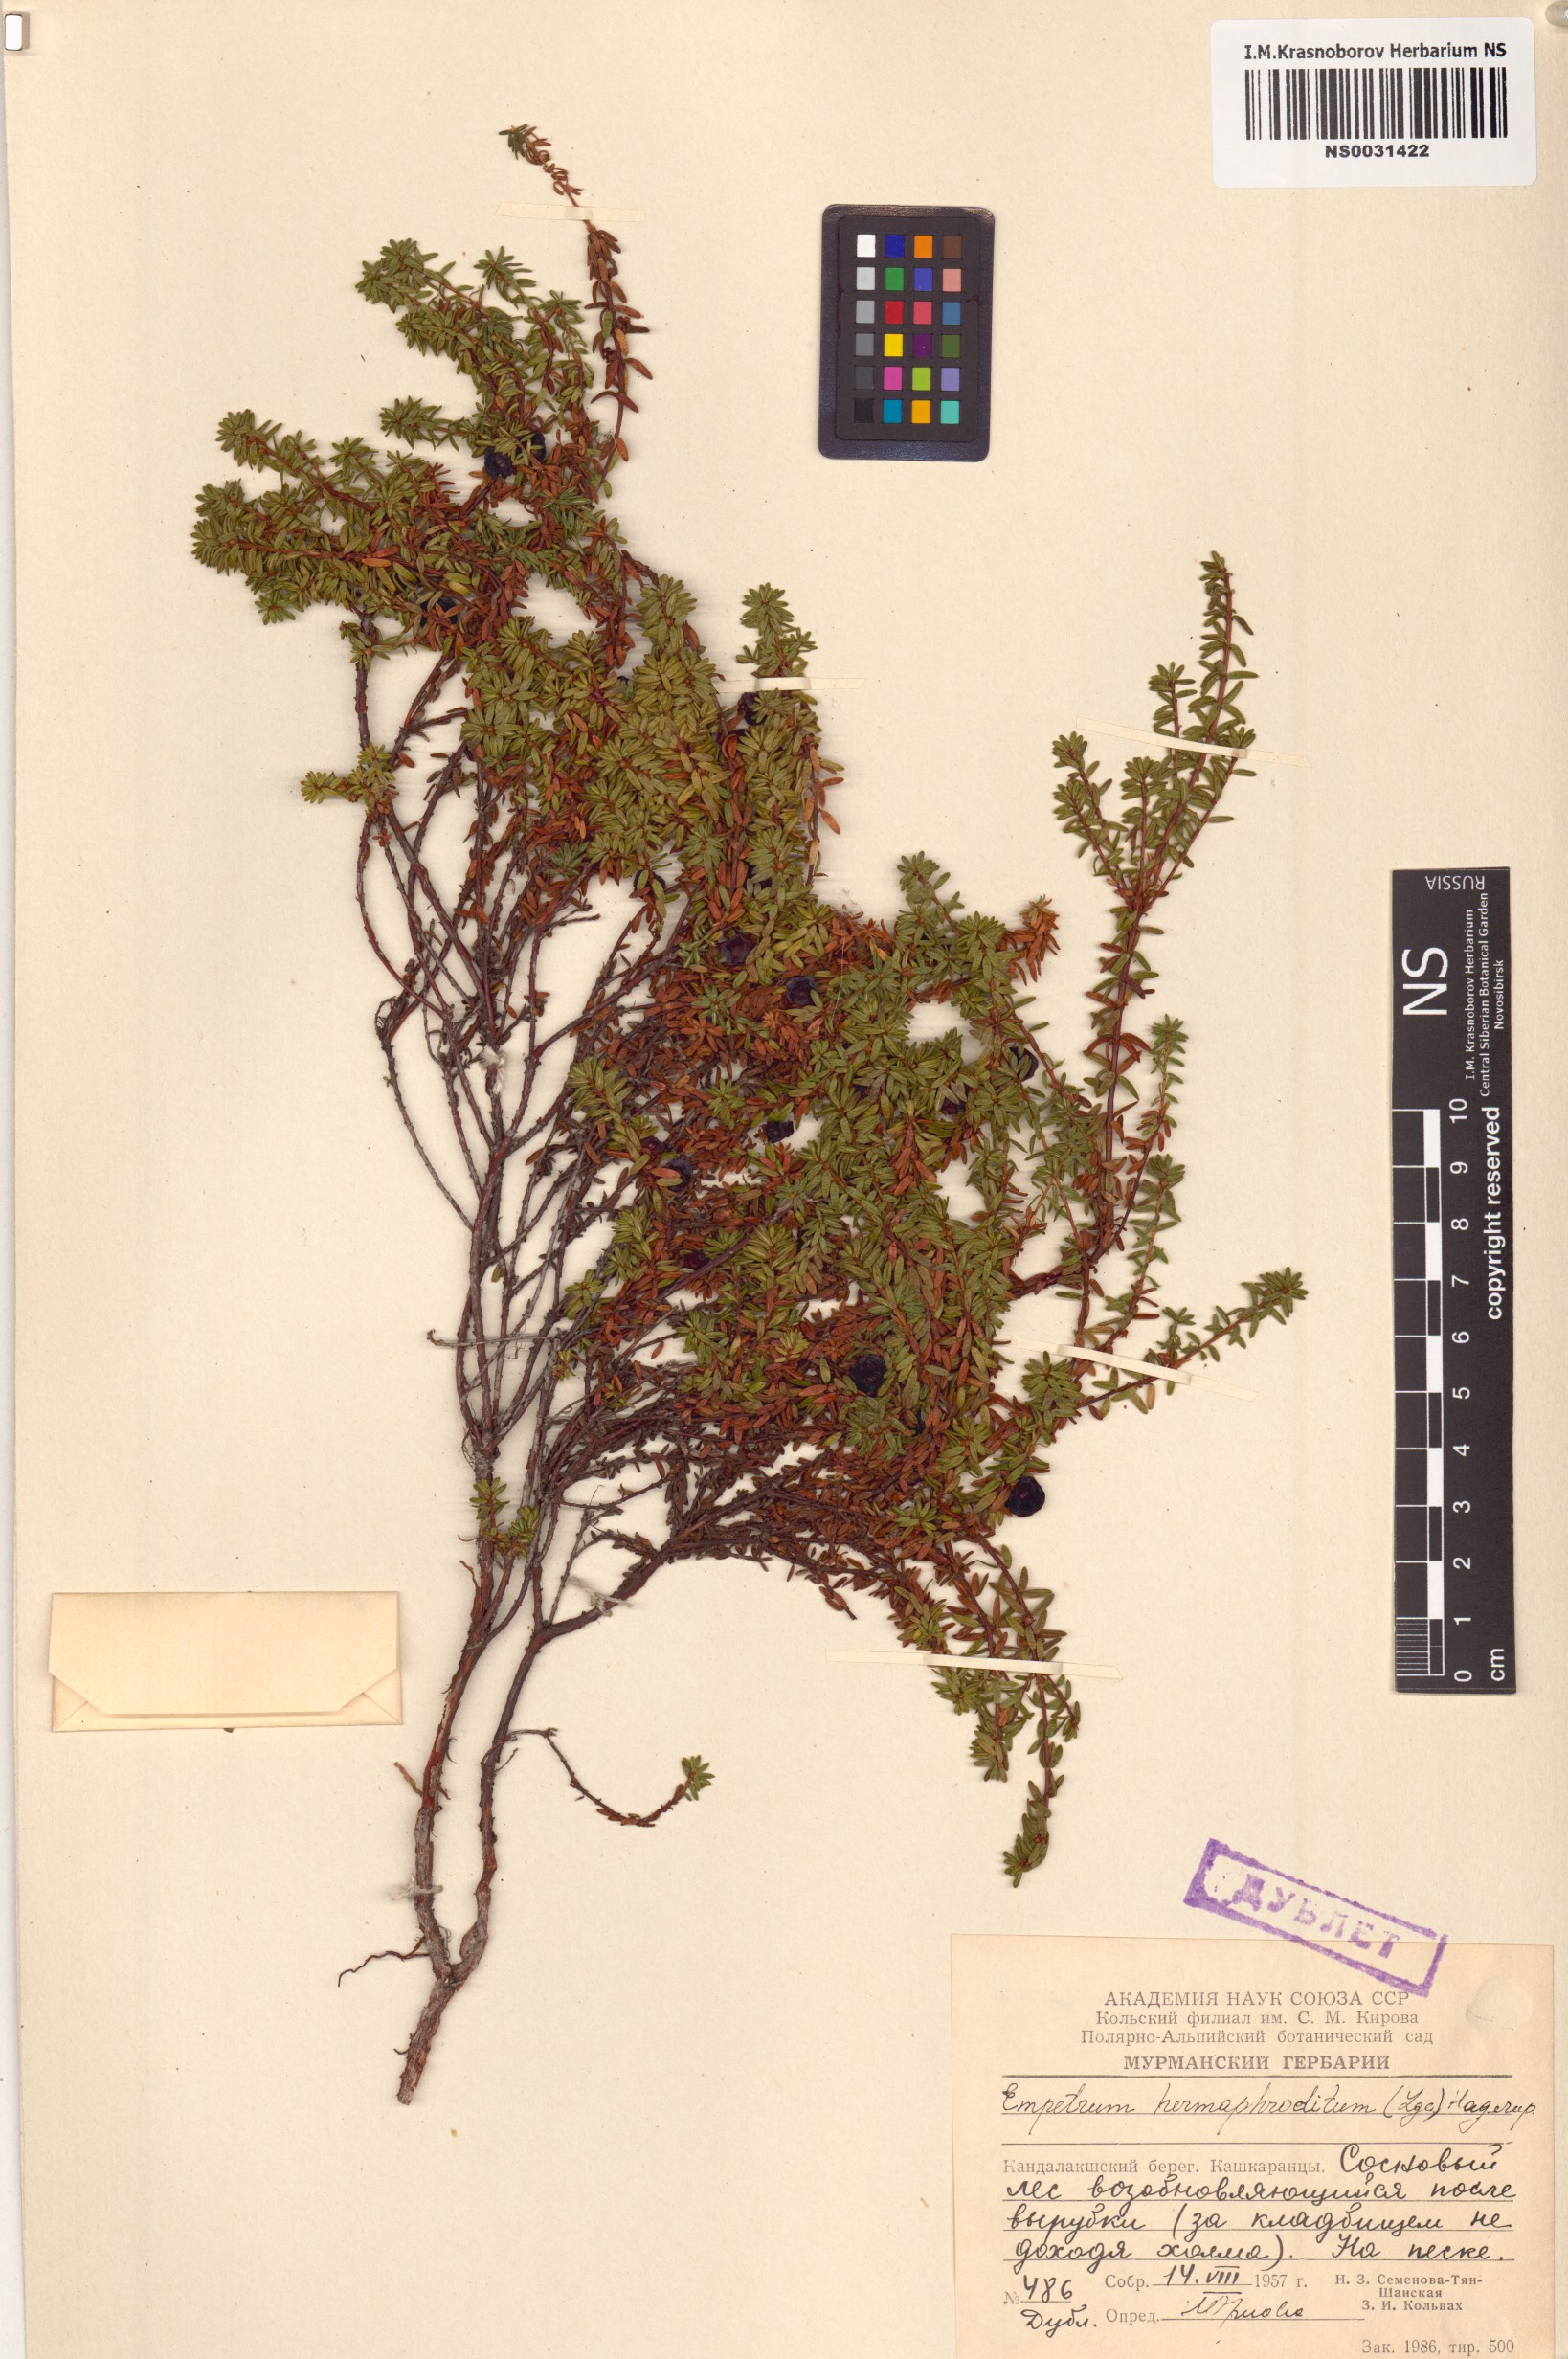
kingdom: Plantae
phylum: Tracheophyta
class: Magnoliopsida
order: Ericales
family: Ericaceae
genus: Empetrum
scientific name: Empetrum hermaphroditum
